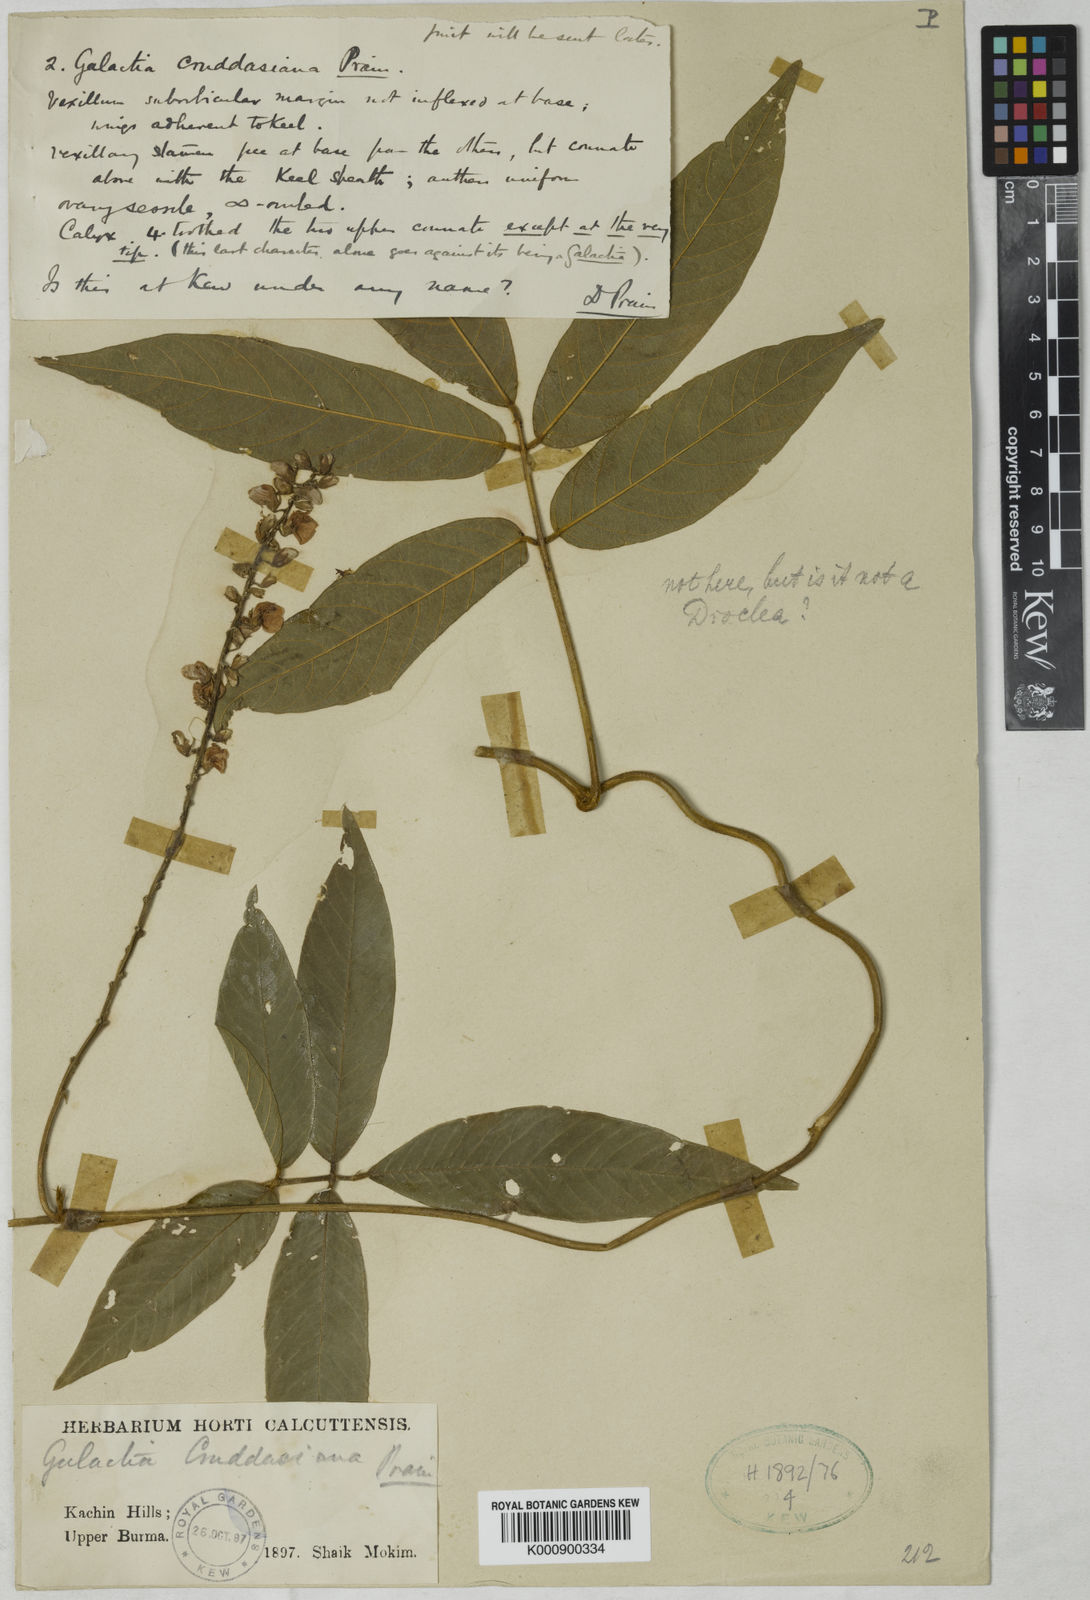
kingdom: Plantae
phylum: Tracheophyta
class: Magnoliopsida
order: Fabales
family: Fabaceae
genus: Cruddasia
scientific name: Cruddasia insignis
